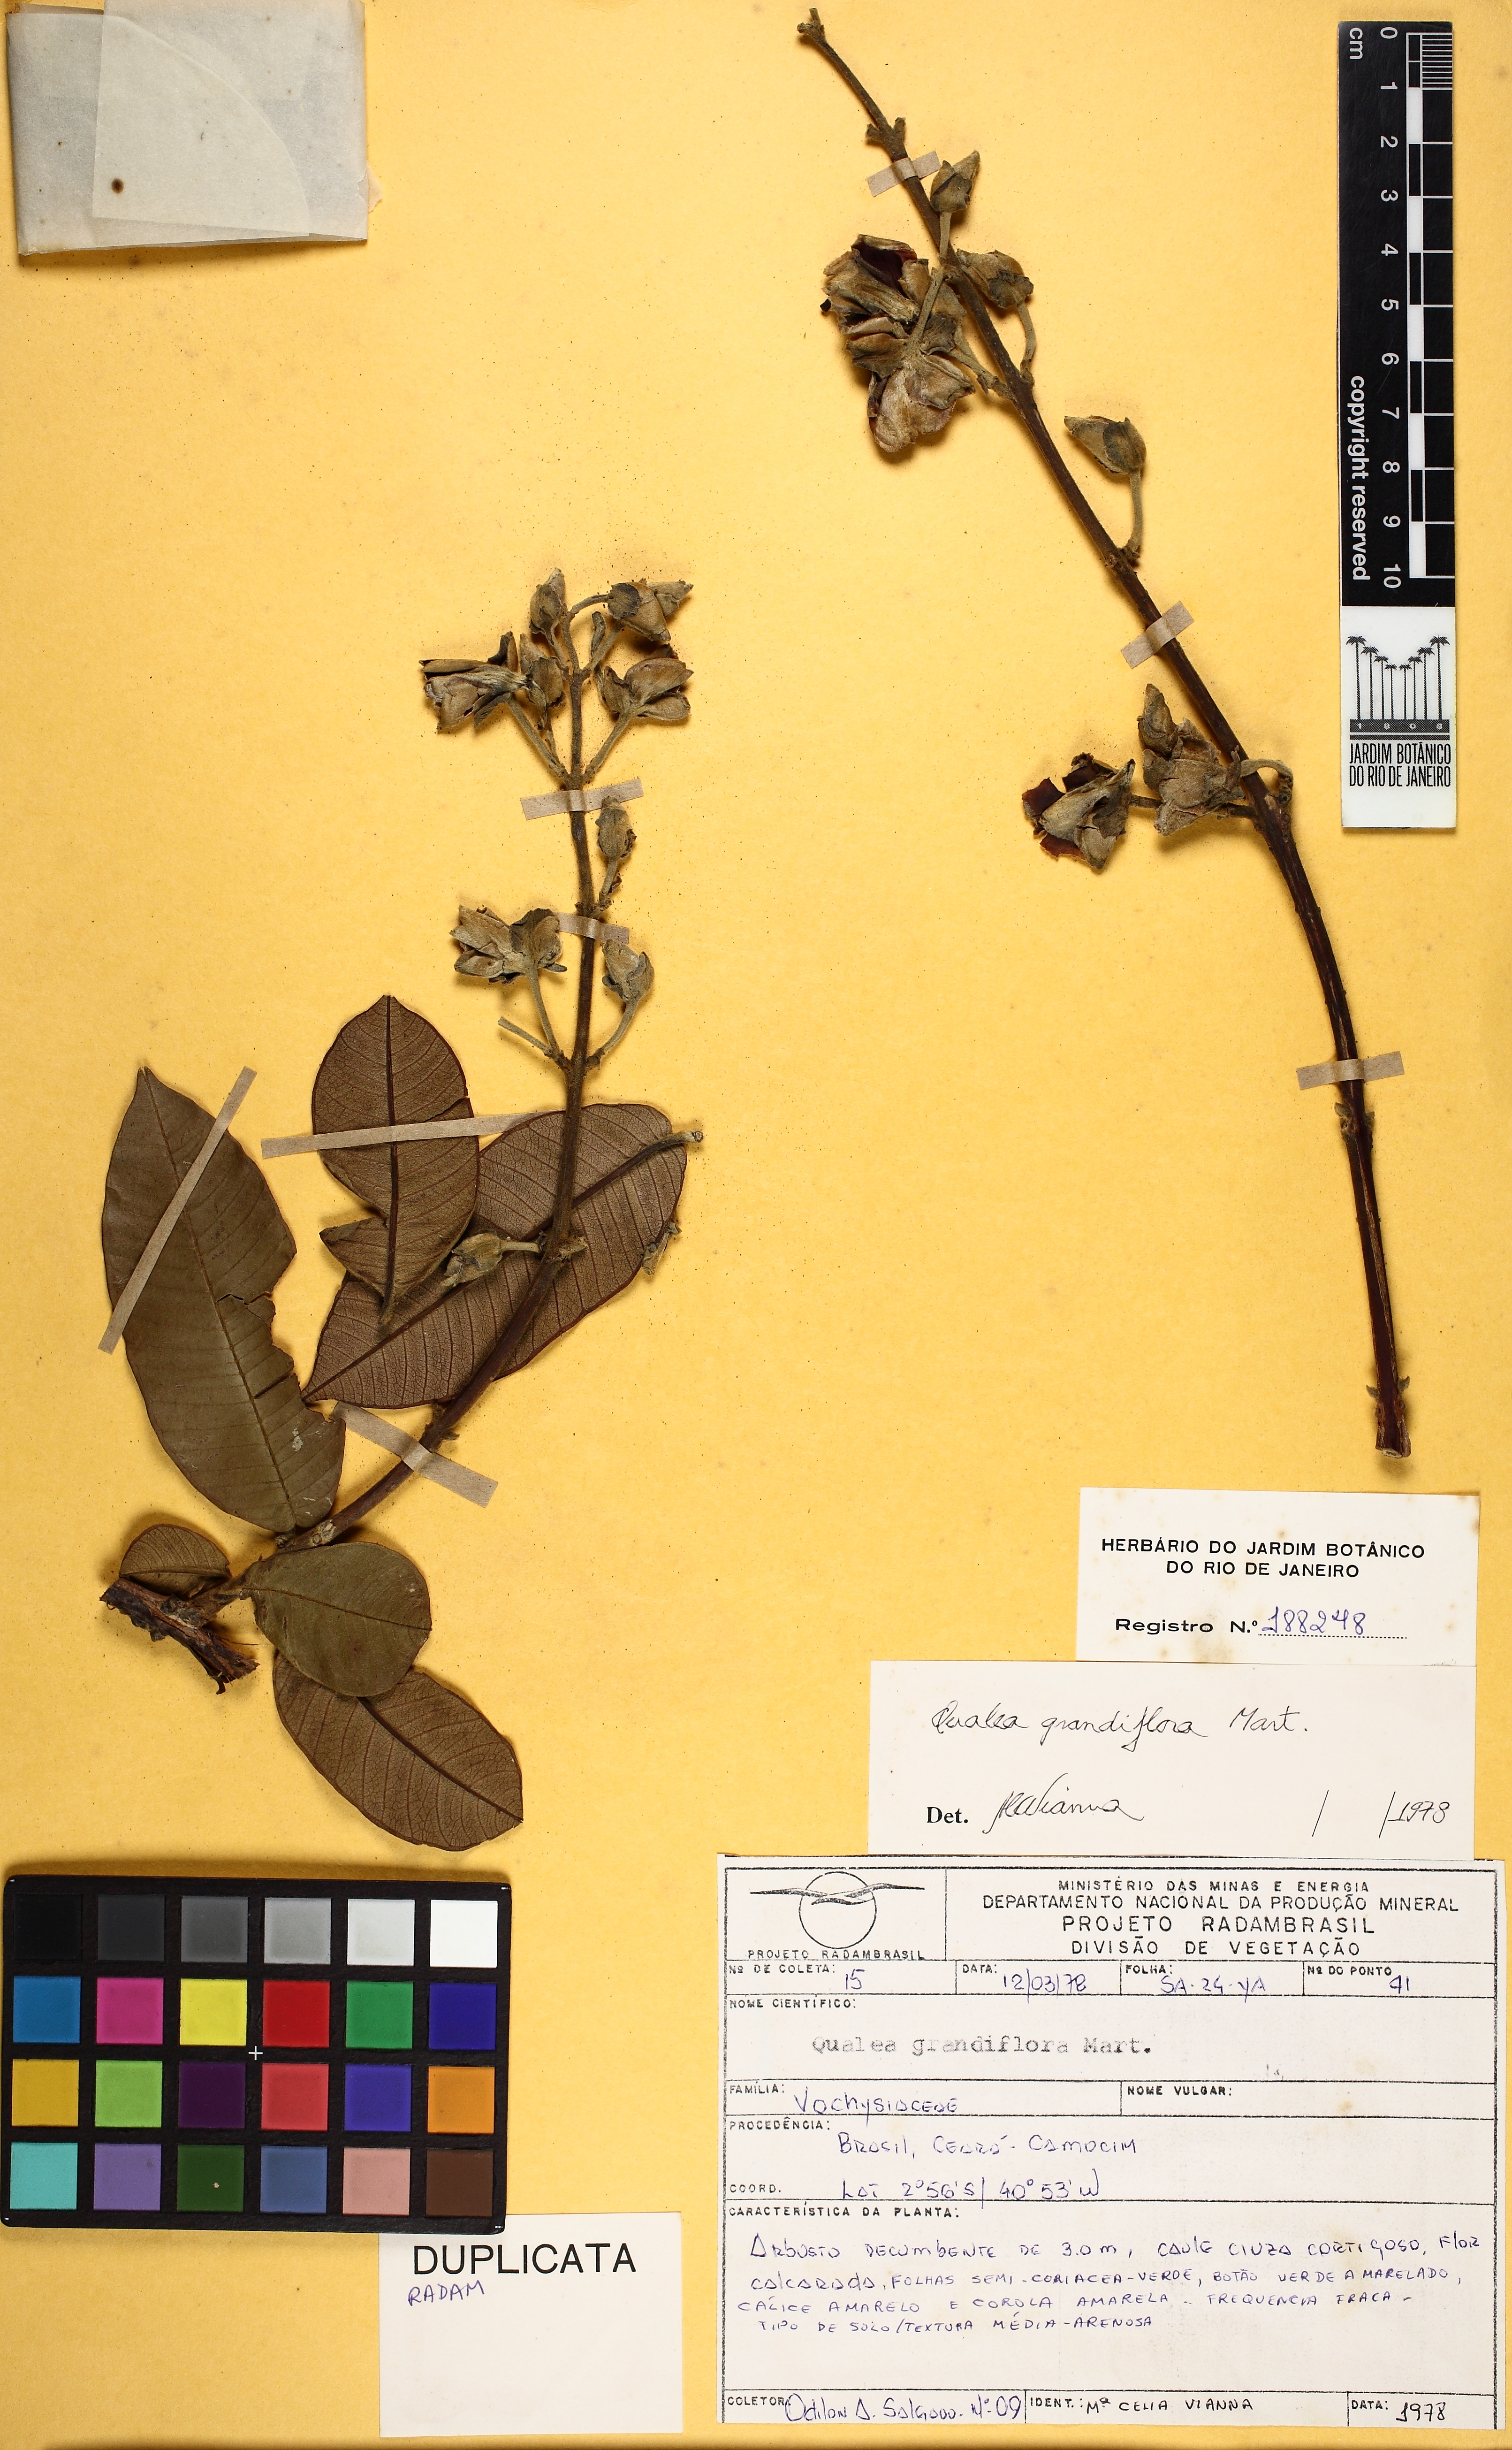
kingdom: Plantae
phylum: Tracheophyta
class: Magnoliopsida
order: Myrtales
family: Vochysiaceae
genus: Qualea
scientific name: Qualea grandiflora
